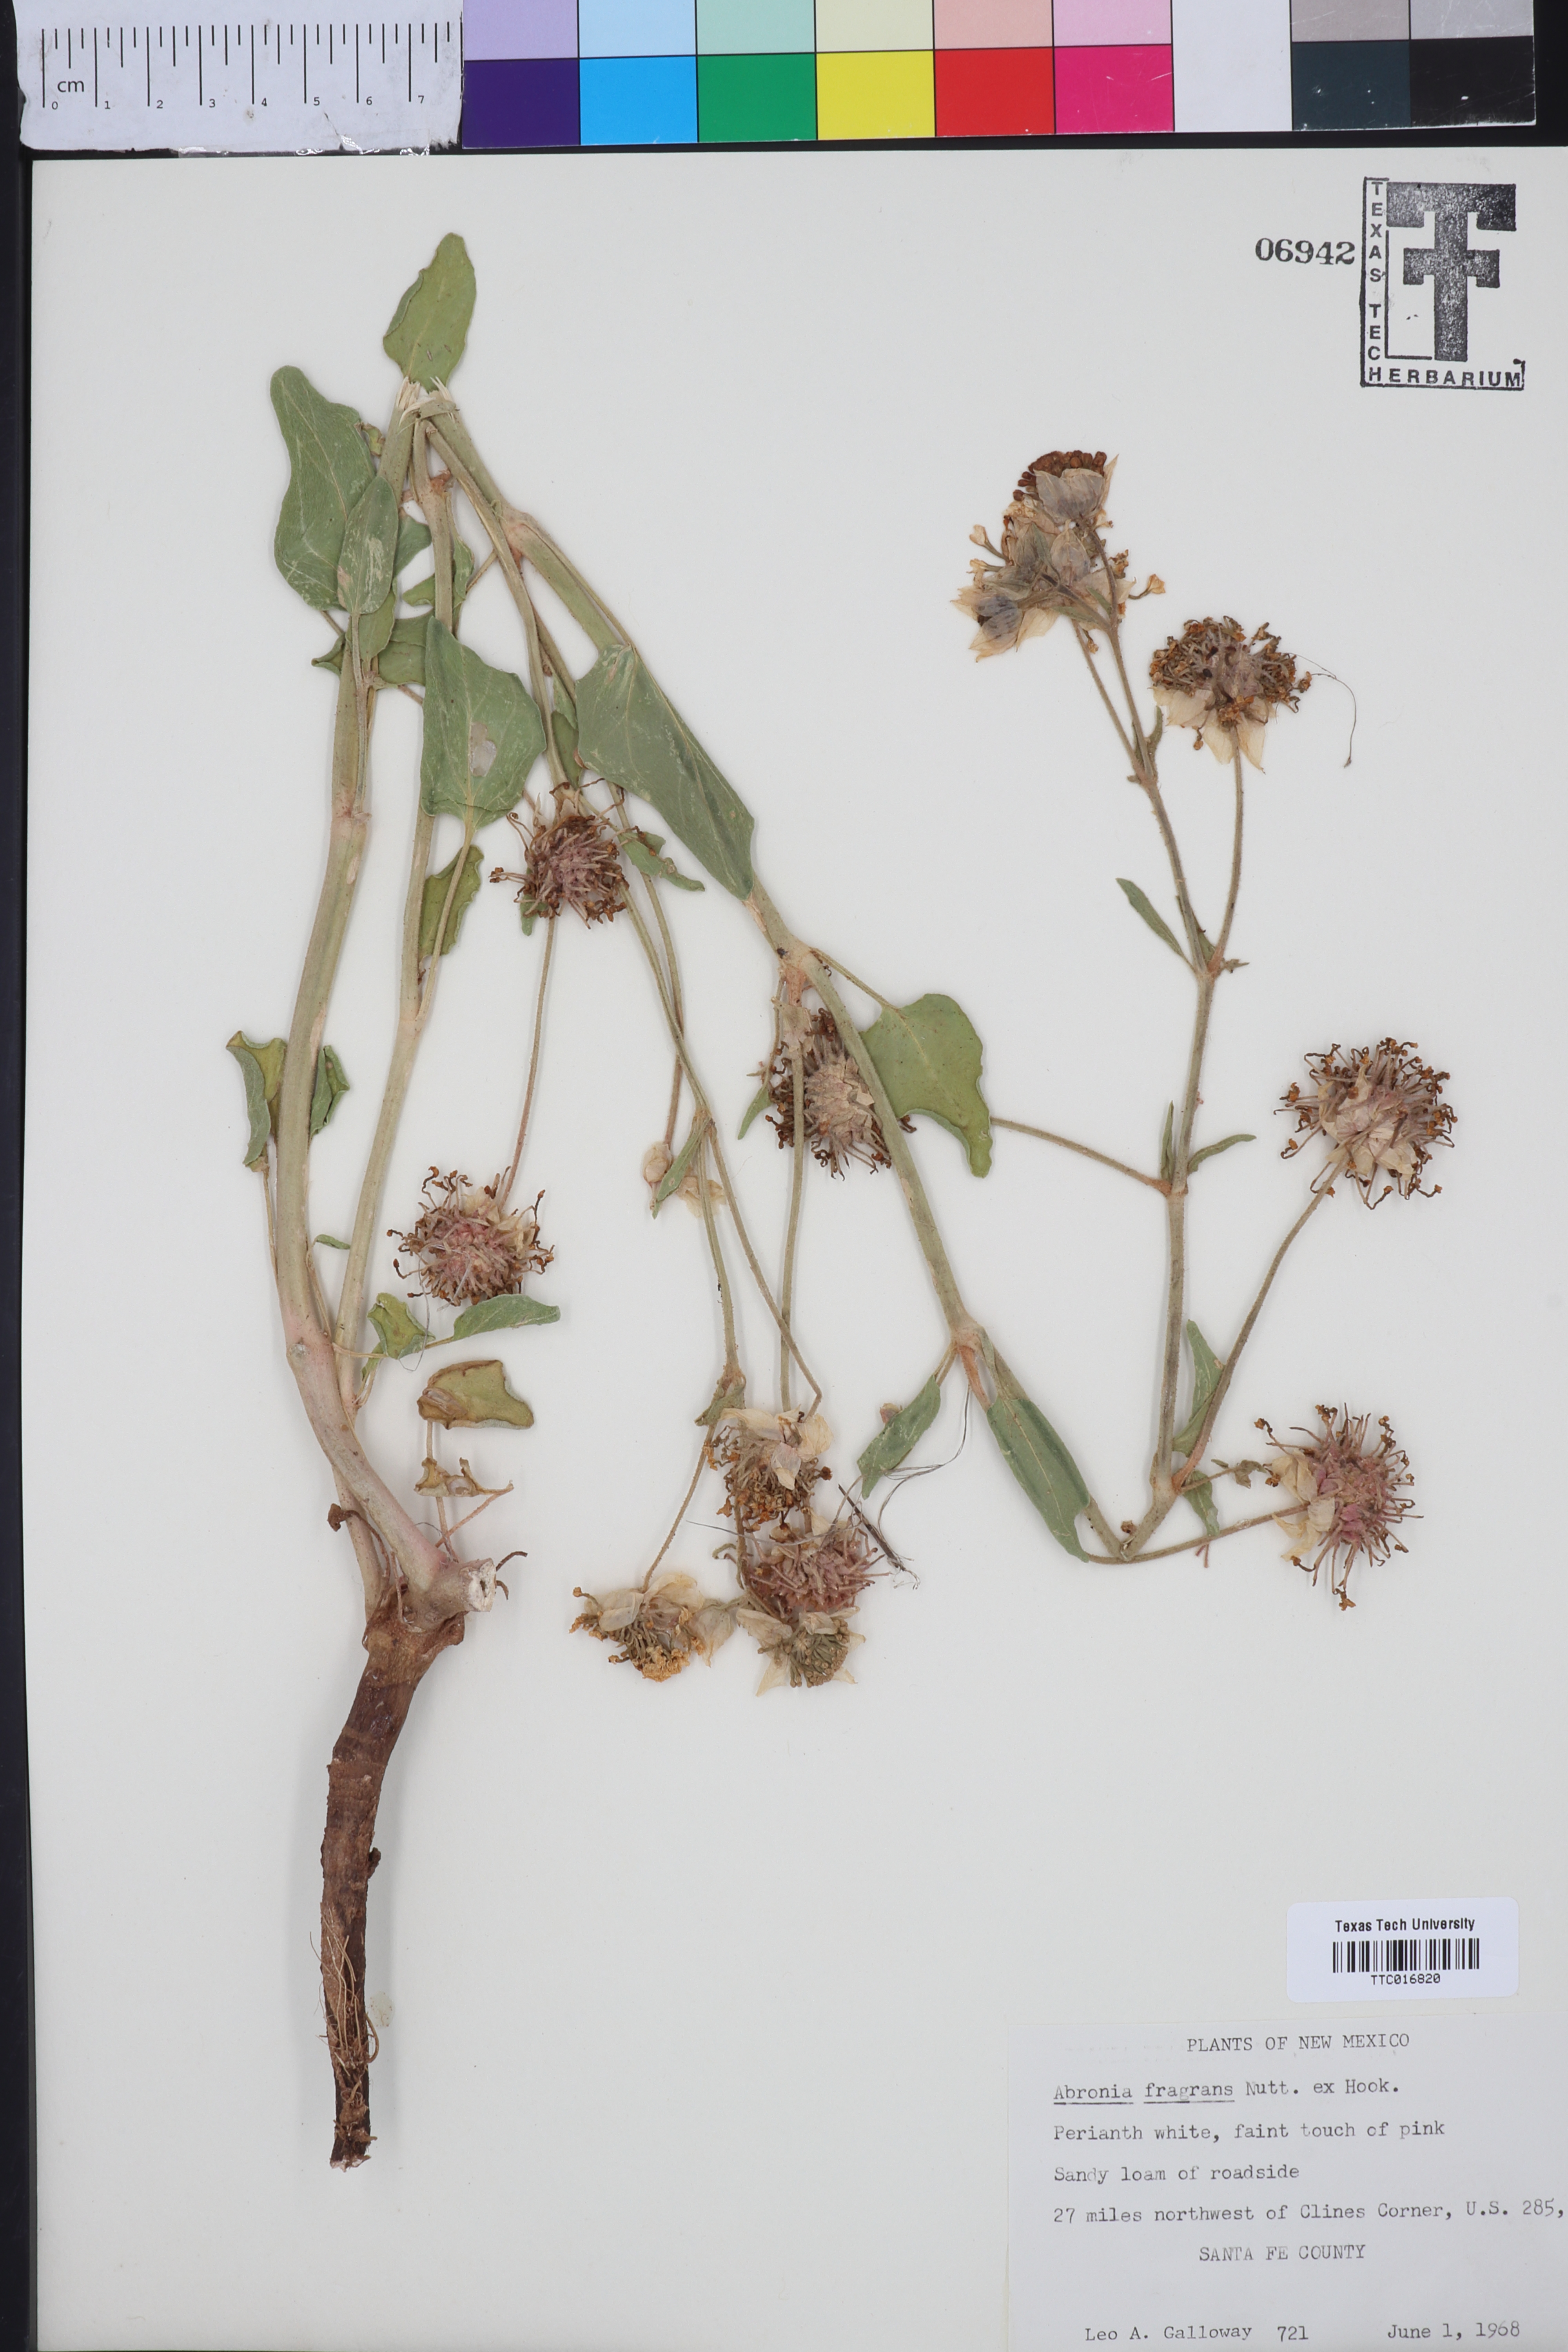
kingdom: Plantae
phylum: Tracheophyta
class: Magnoliopsida
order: Caryophyllales
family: Nyctaginaceae
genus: Abronia
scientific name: Abronia fragrans
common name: Fragrant sand-verbena
